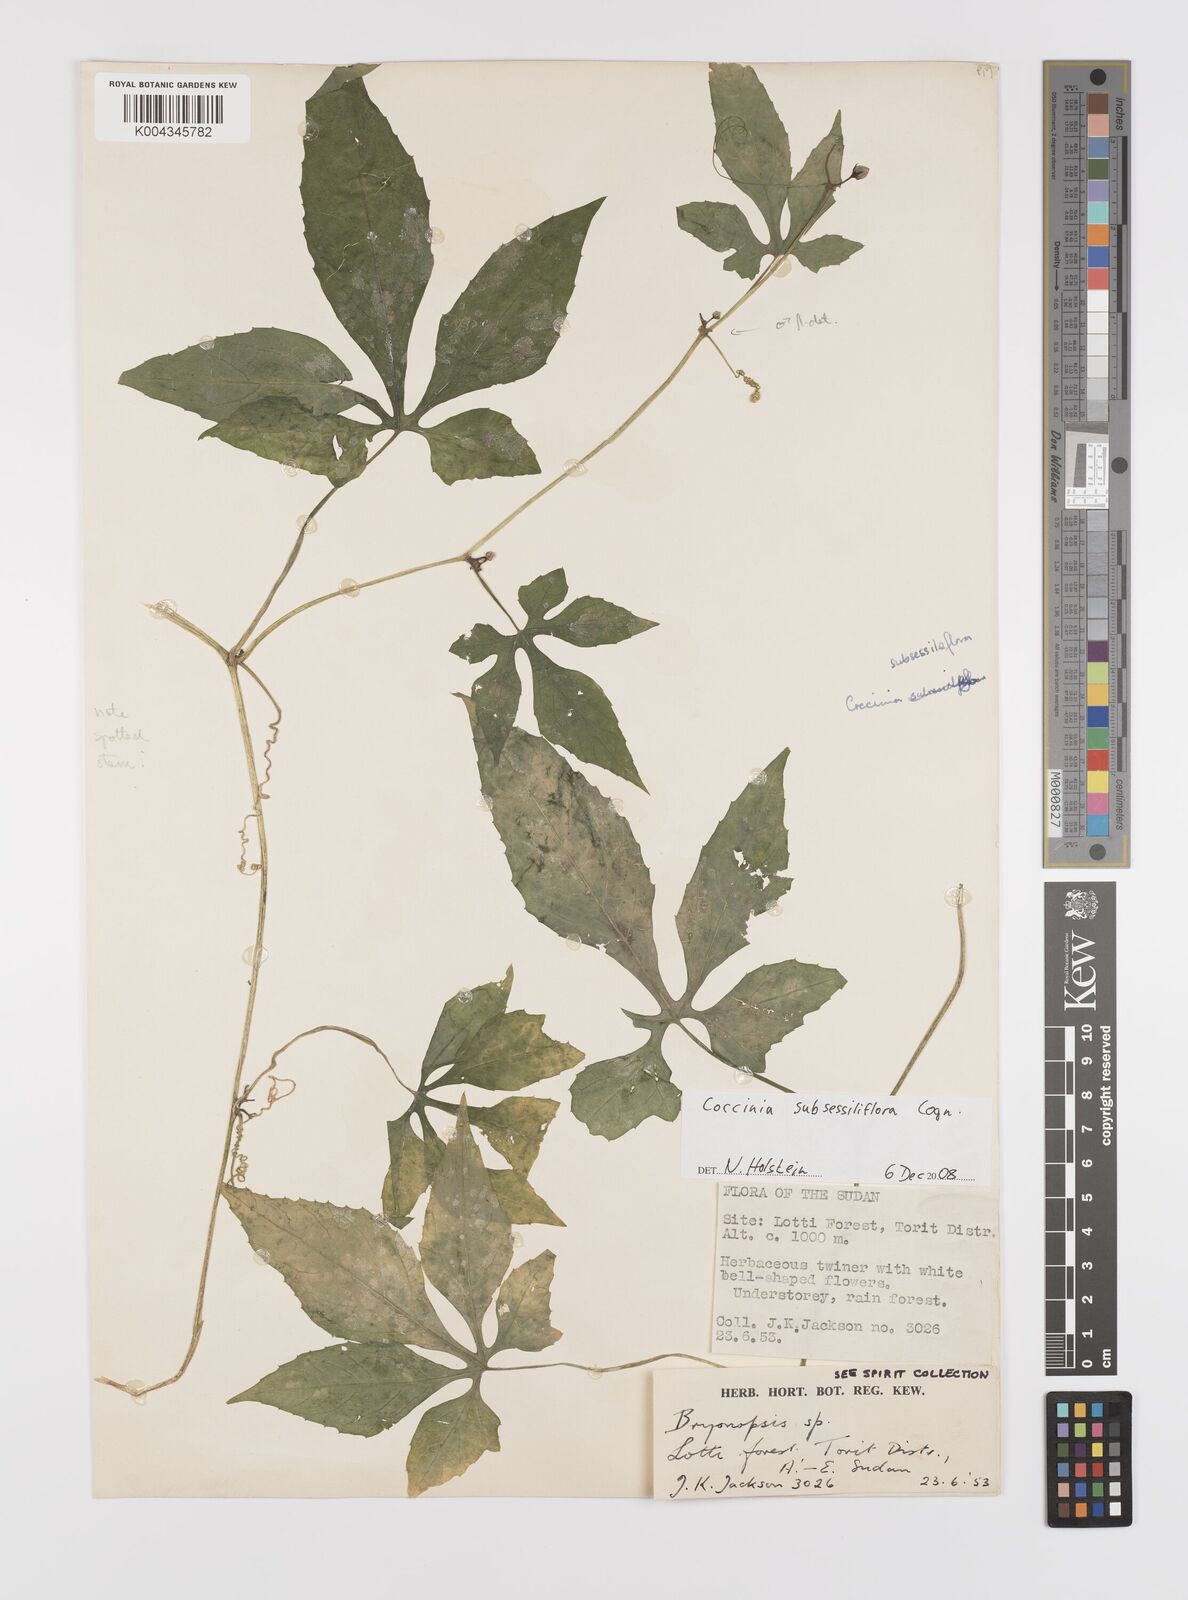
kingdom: Plantae
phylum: Tracheophyta
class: Magnoliopsida
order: Cucurbitales
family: Cucurbitaceae
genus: Coccinia
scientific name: Coccinia subsessiliflora
